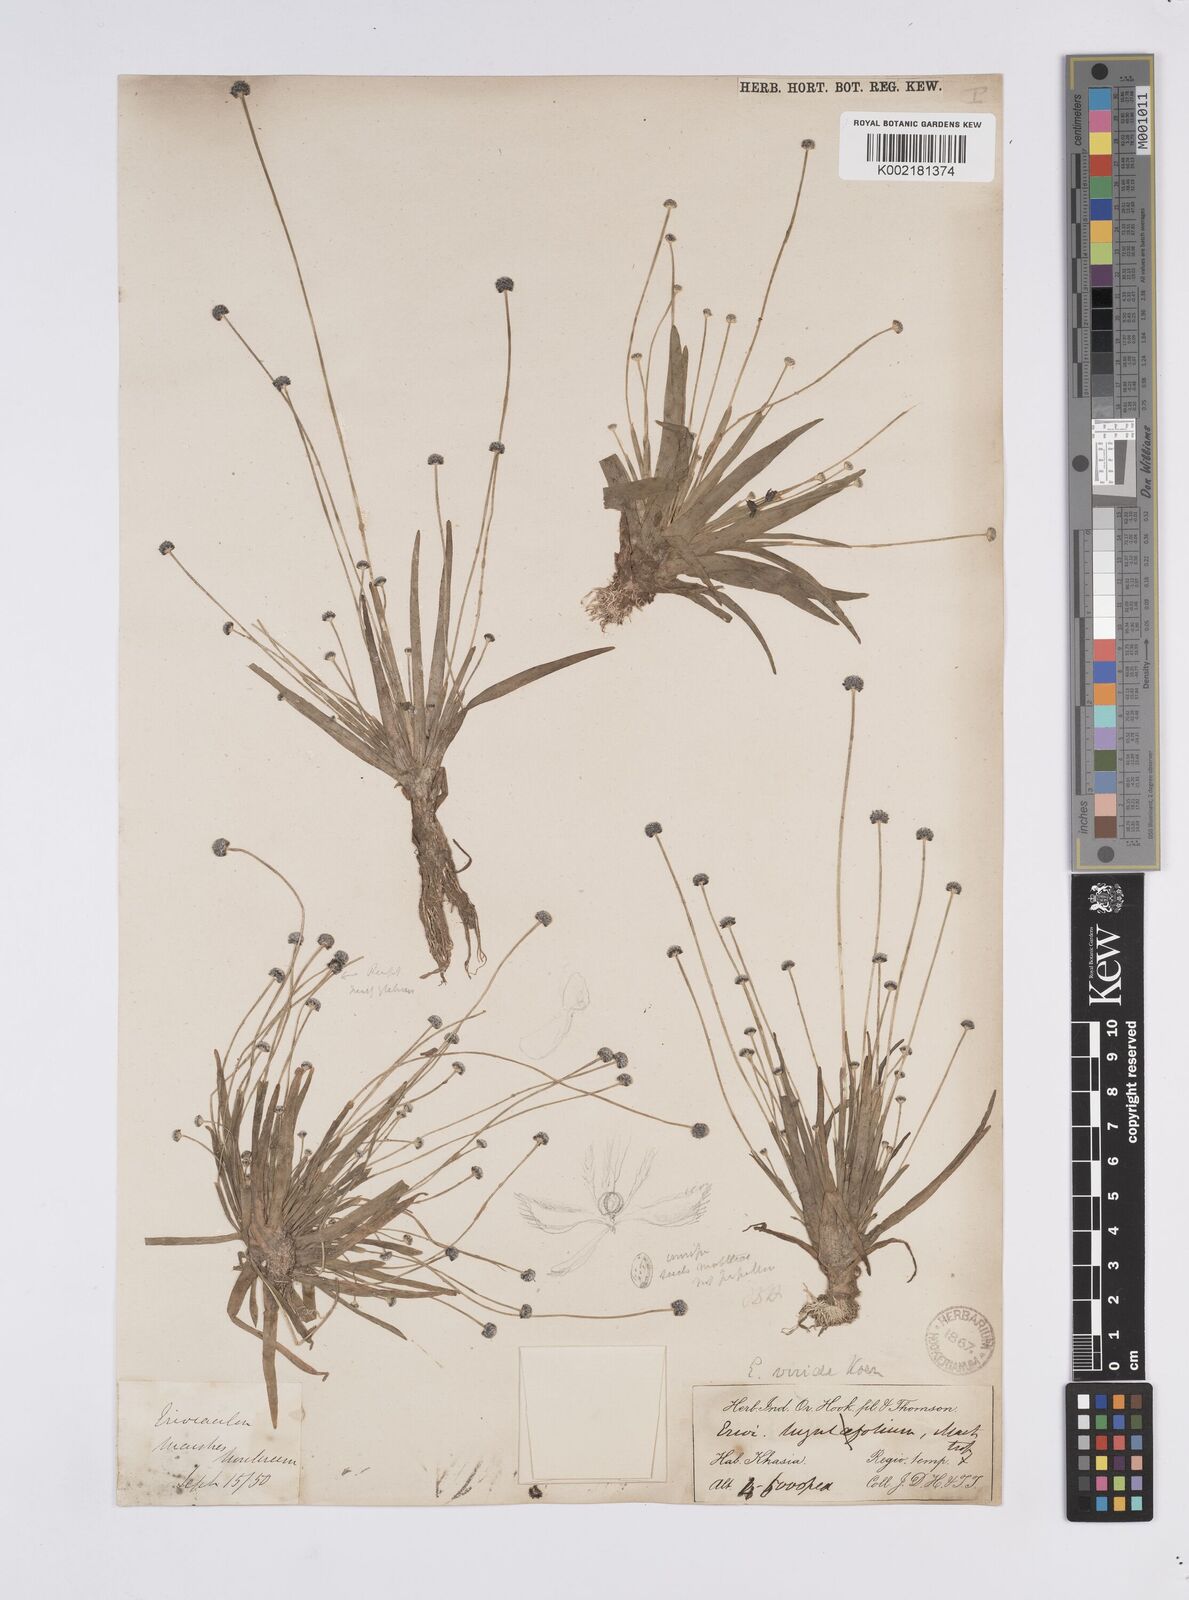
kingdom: Plantae
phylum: Tracheophyta
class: Liliopsida
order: Poales
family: Eriocaulaceae
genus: Eriocaulon
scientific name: Eriocaulon nepalense
